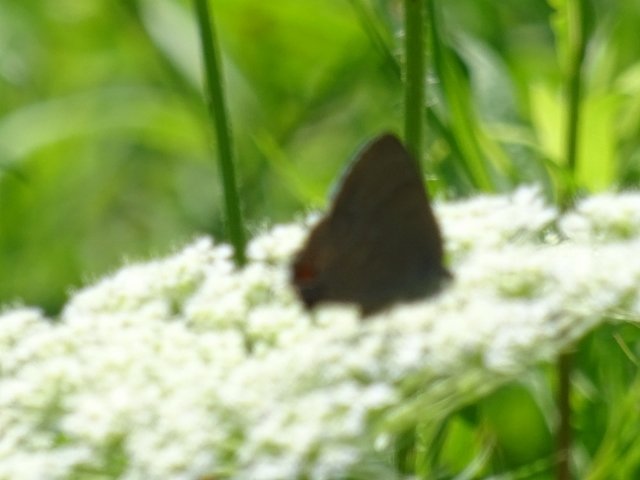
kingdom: Animalia
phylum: Arthropoda
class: Insecta
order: Lepidoptera
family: Lycaenidae
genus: Satyrium
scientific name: Satyrium
